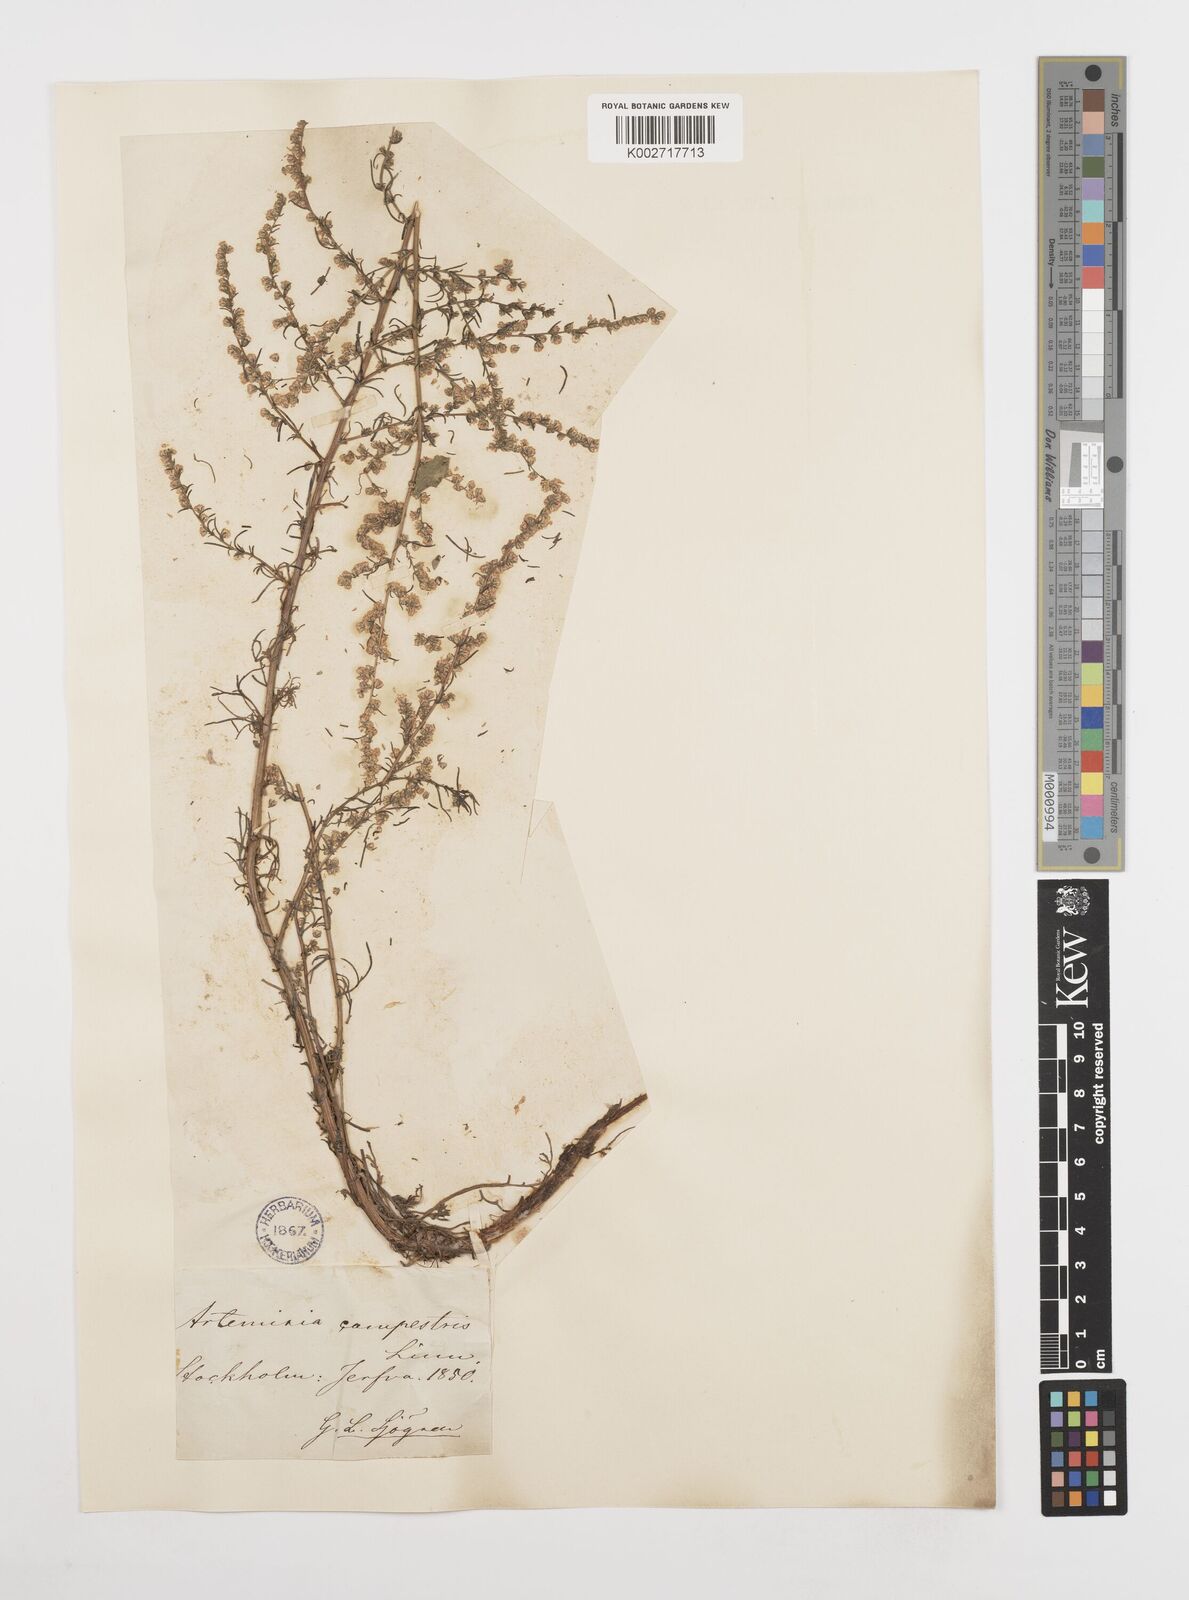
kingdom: Plantae
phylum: Tracheophyta
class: Magnoliopsida
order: Asterales
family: Asteraceae
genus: Artemisia
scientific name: Artemisia campestris
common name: Field wormwood
